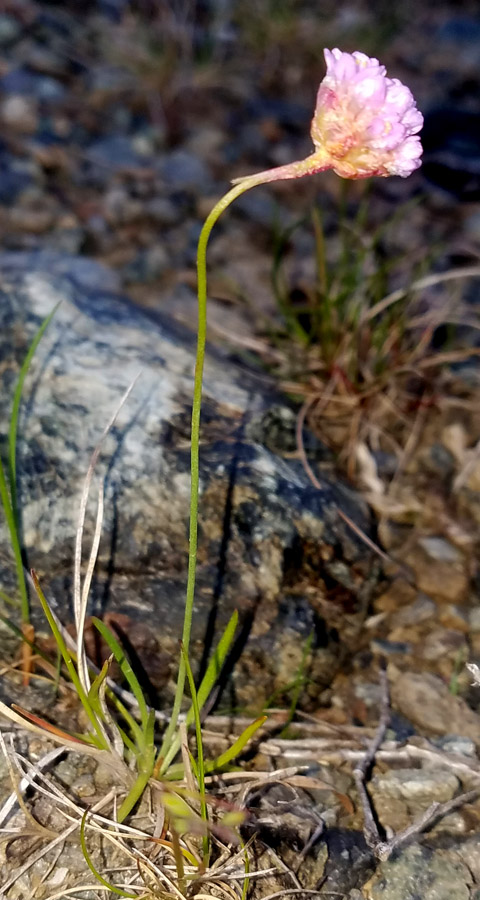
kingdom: Plantae
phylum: Tracheophyta
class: Magnoliopsida
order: Caryophyllales
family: Plumbaginaceae
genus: Armeria
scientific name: Armeria maritima
